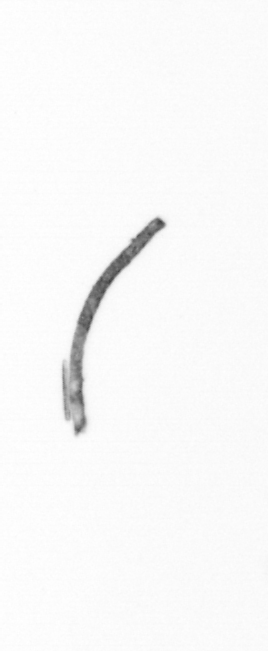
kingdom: Chromista
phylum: Ochrophyta
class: Bacillariophyceae
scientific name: Bacillariophyceae
